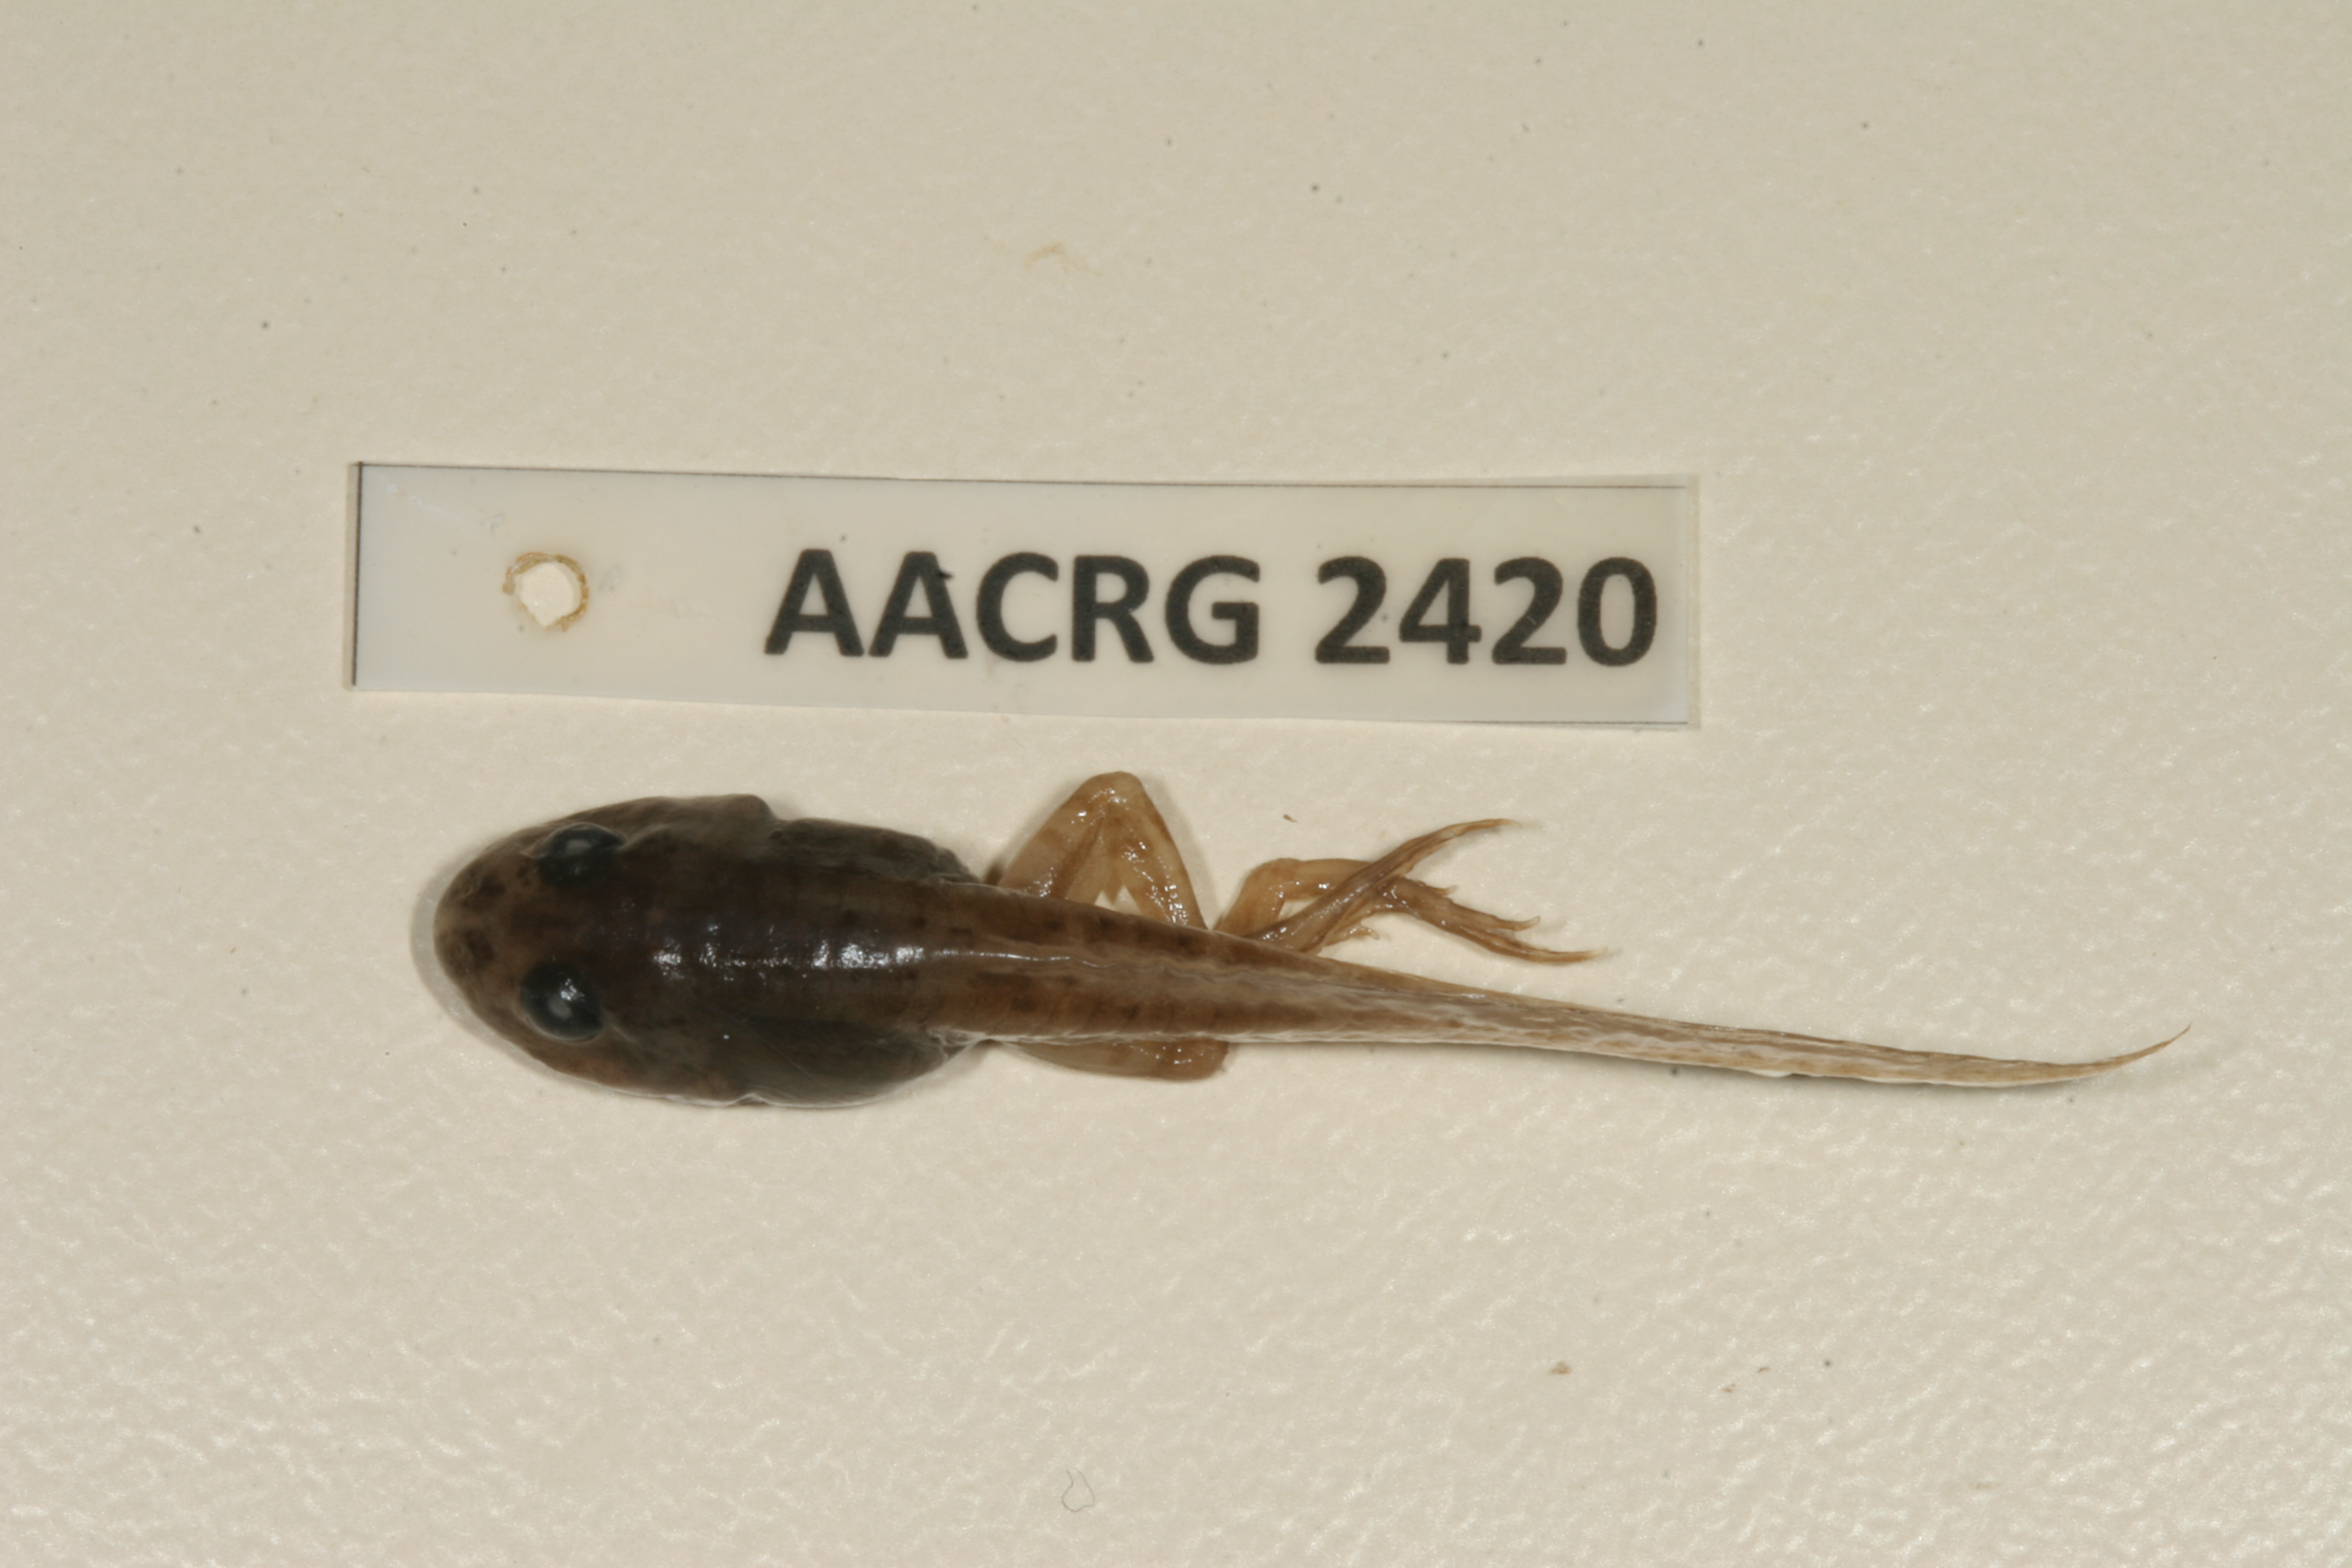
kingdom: Animalia
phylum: Chordata
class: Amphibia
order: Anura
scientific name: Anura
